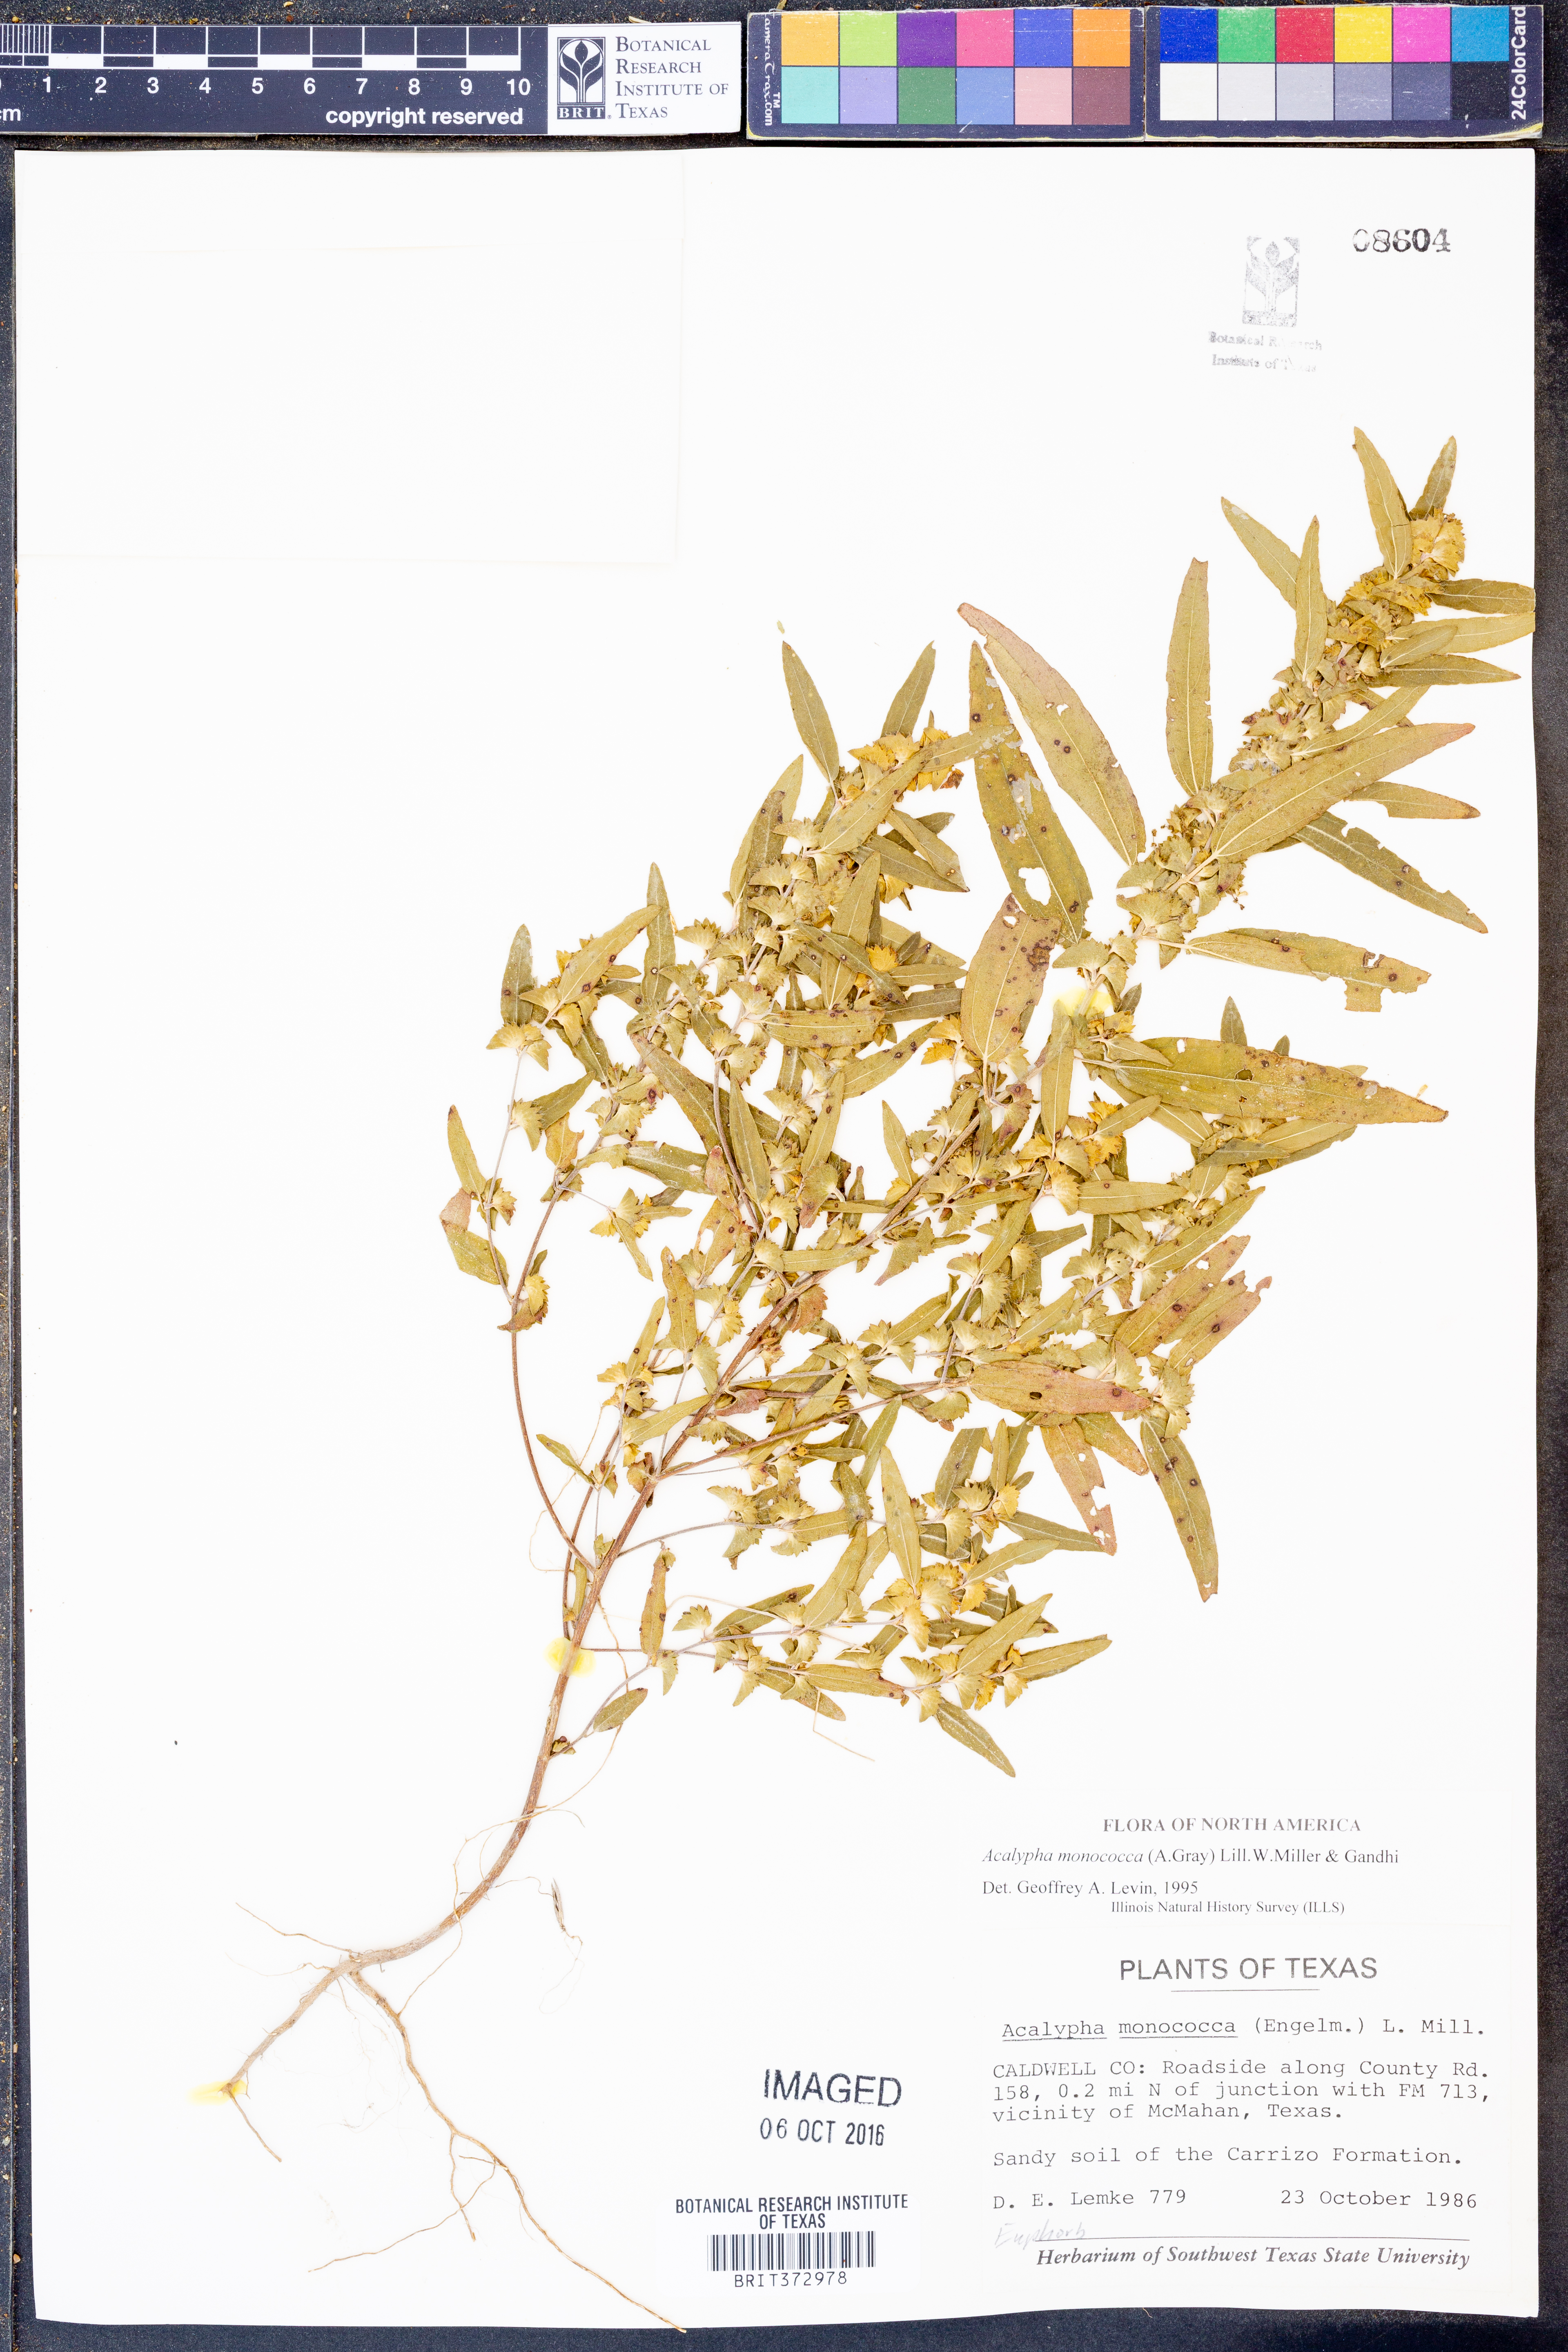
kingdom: Plantae
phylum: Tracheophyta
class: Magnoliopsida
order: Malpighiales
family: Euphorbiaceae
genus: Acalypha
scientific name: Acalypha monococca
